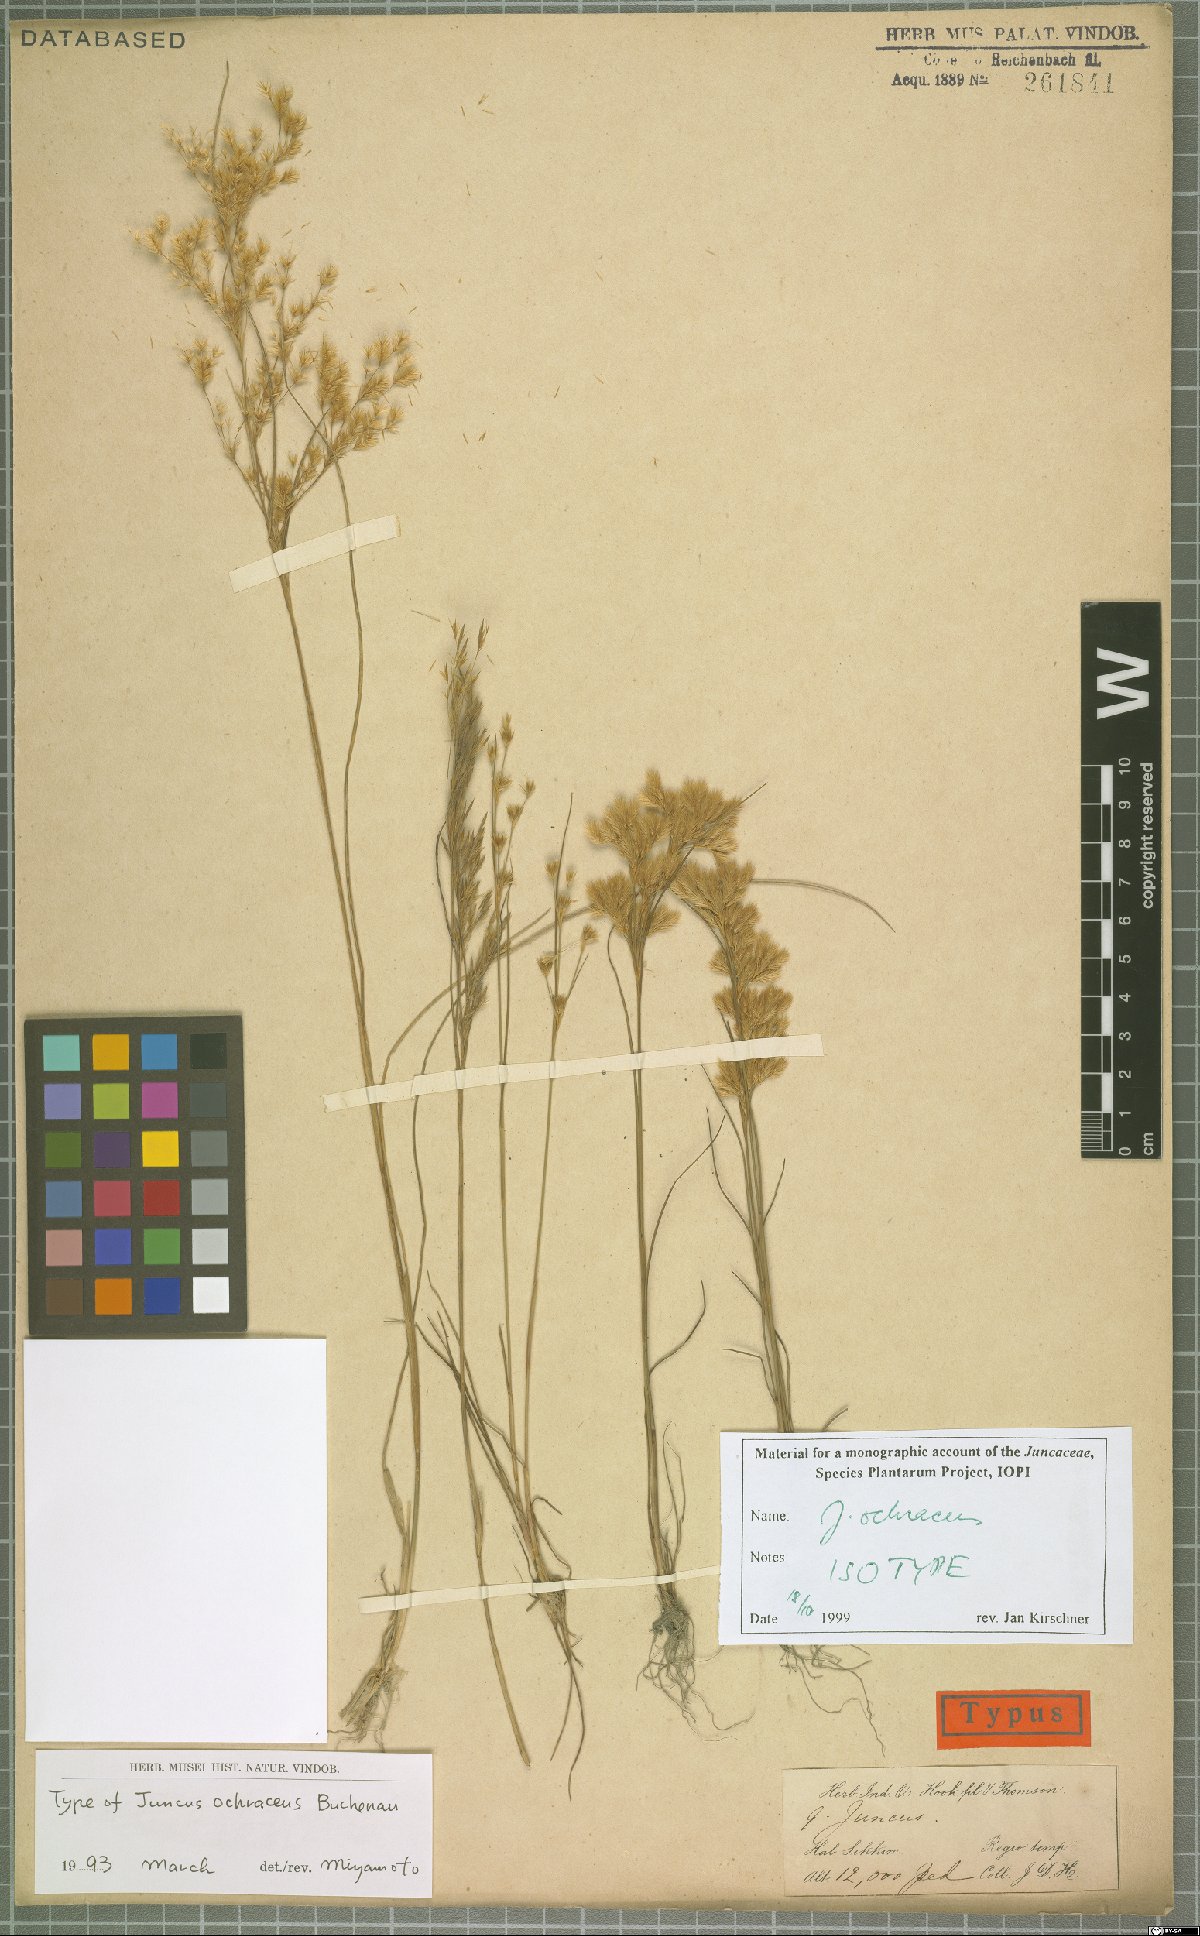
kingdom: Plantae
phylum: Tracheophyta
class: Liliopsida
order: Poales
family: Juncaceae
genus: Juncus
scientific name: Juncus ochraceus
